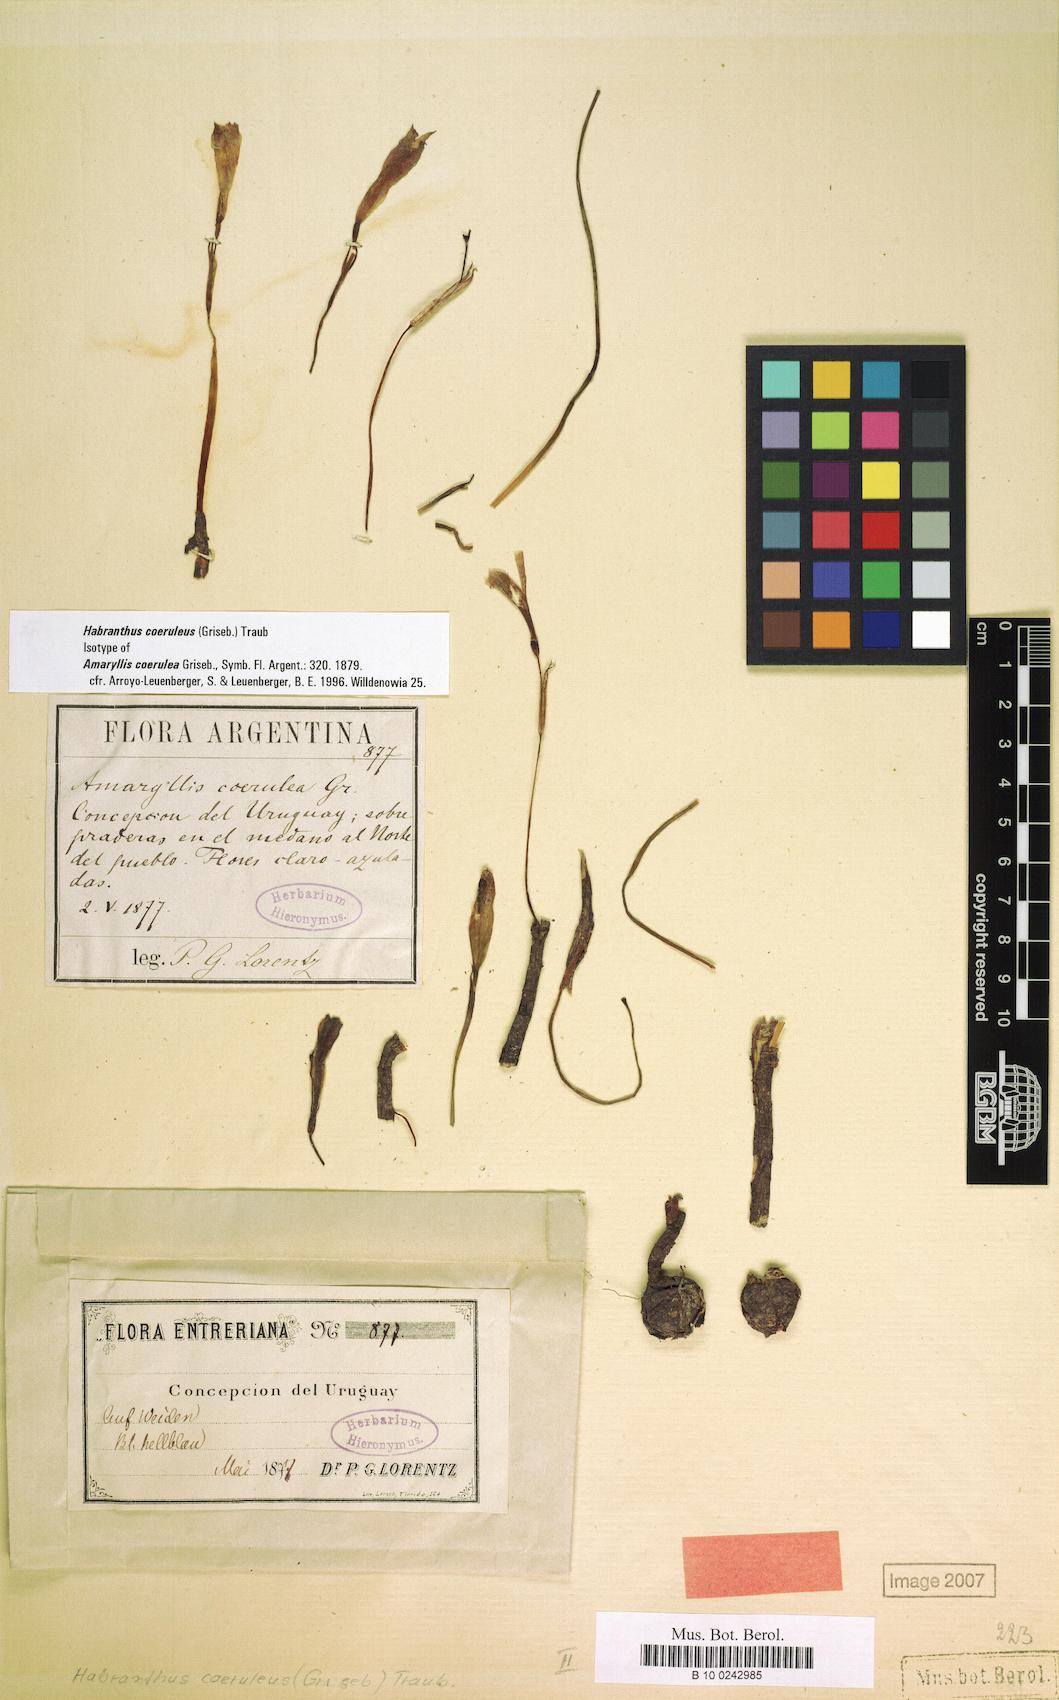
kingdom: Plantae
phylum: Tracheophyta
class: Liliopsida
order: Asparagales
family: Amaryllidaceae
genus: Zephyranthes
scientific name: Zephyranthes coerulea
